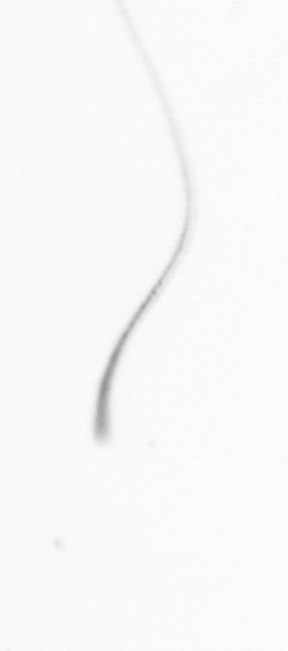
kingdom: Chromista
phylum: Ochrophyta
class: Bacillariophyceae
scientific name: Bacillariophyceae
